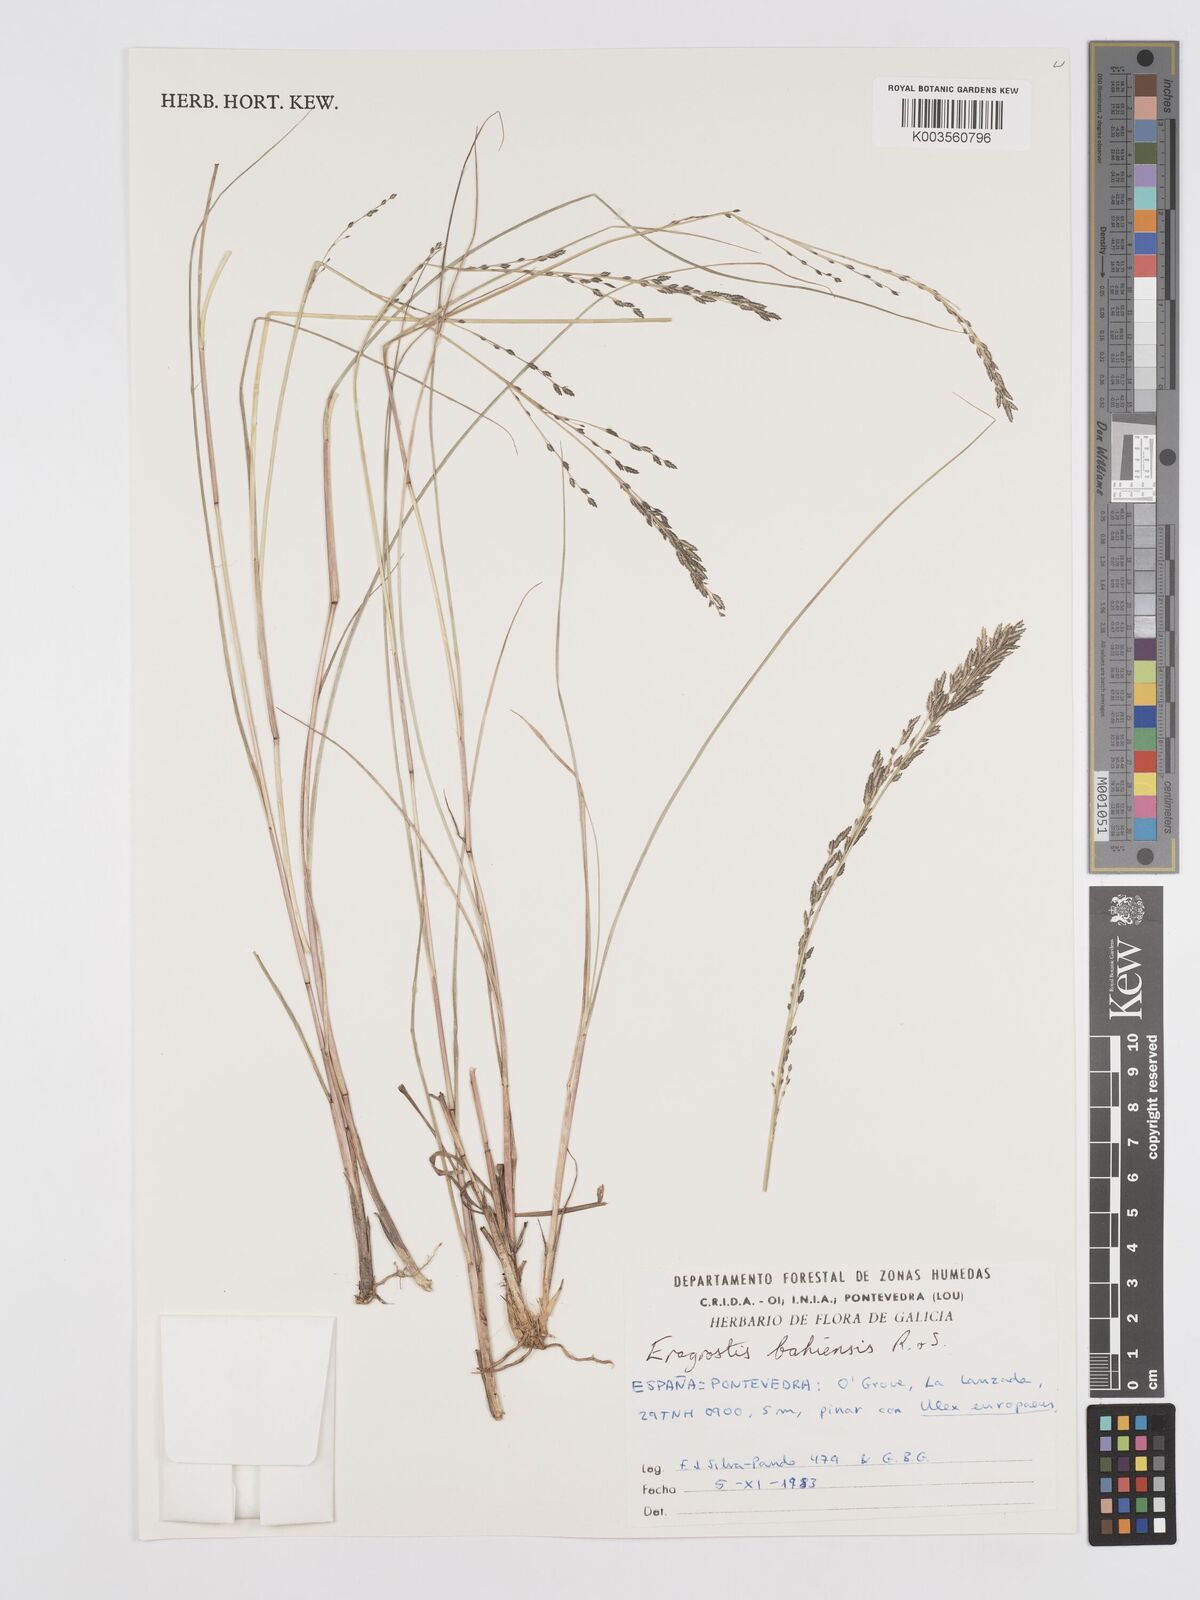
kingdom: Plantae
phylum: Tracheophyta
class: Liliopsida
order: Poales
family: Poaceae
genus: Eragrostis
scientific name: Eragrostis bahiensis
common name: Bahia lovegrass
